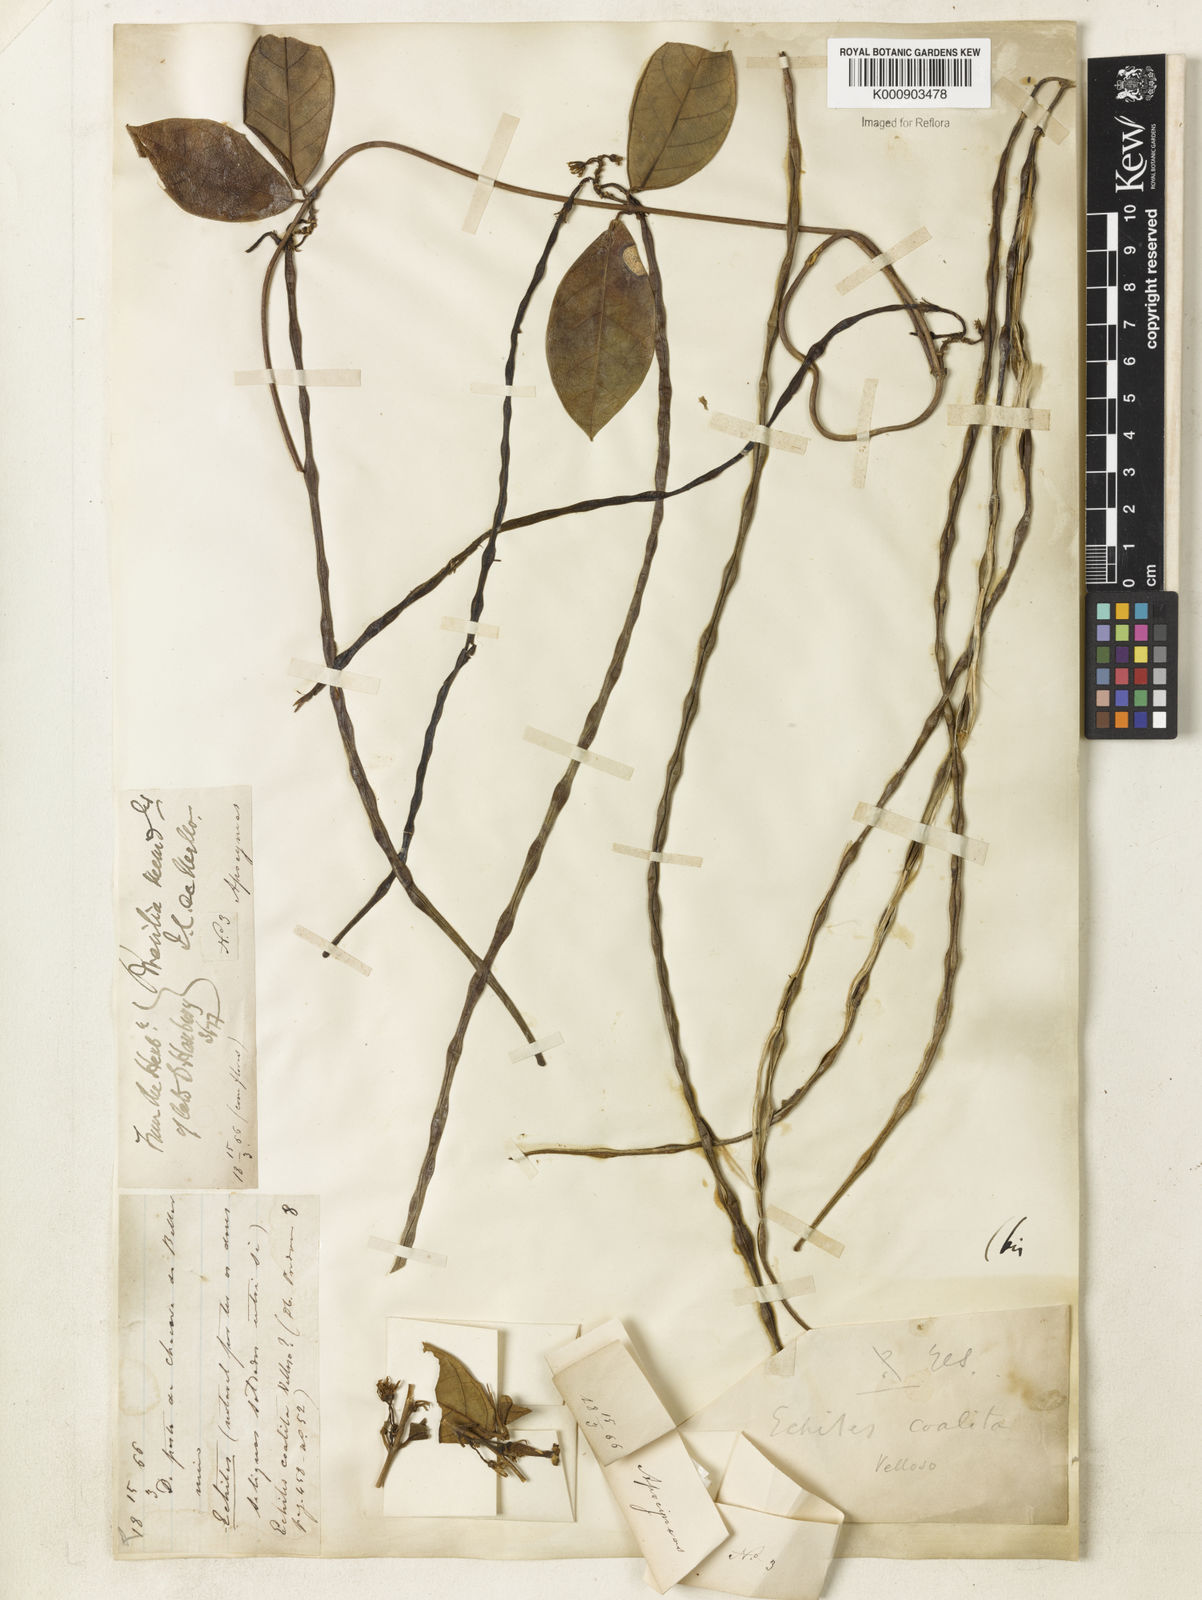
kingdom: Plantae
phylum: Tracheophyta
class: Magnoliopsida
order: Gentianales
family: Apocynaceae
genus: Prestonia
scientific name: Prestonia coalita
